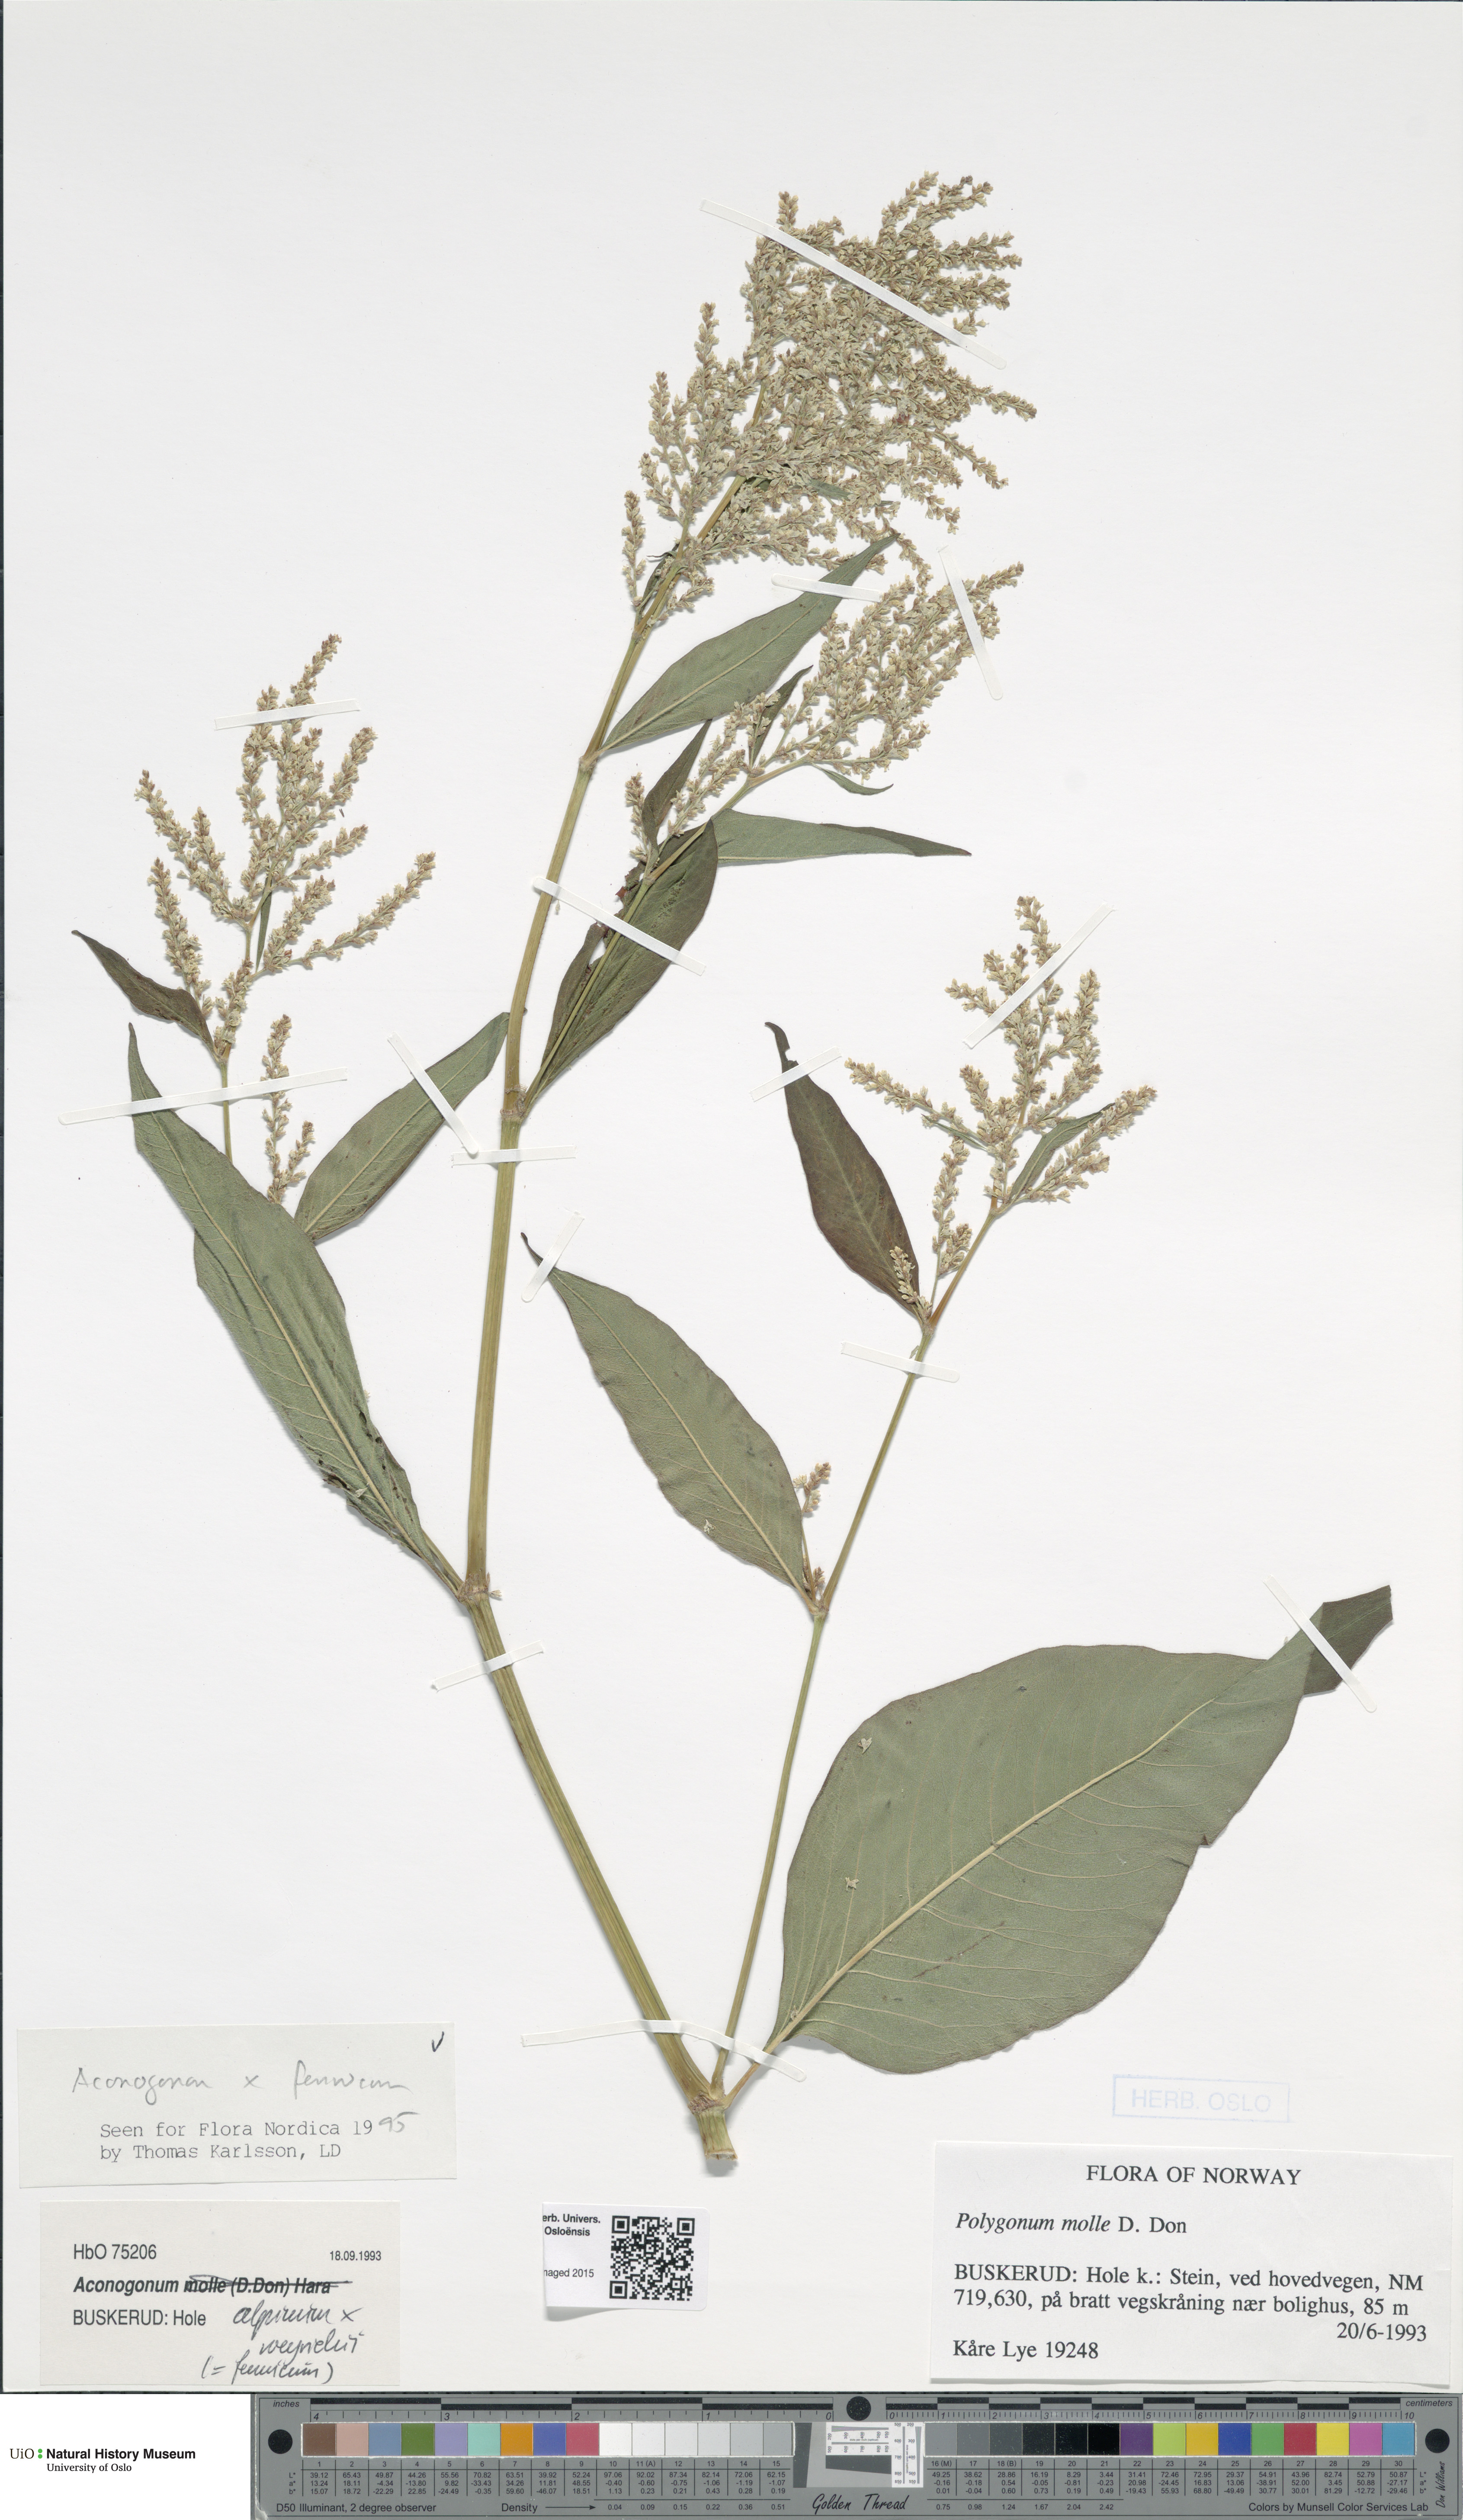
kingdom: Plantae
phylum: Tracheophyta
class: Magnoliopsida
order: Caryophyllales
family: Polygonaceae
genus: Koenigia
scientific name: Koenigia
